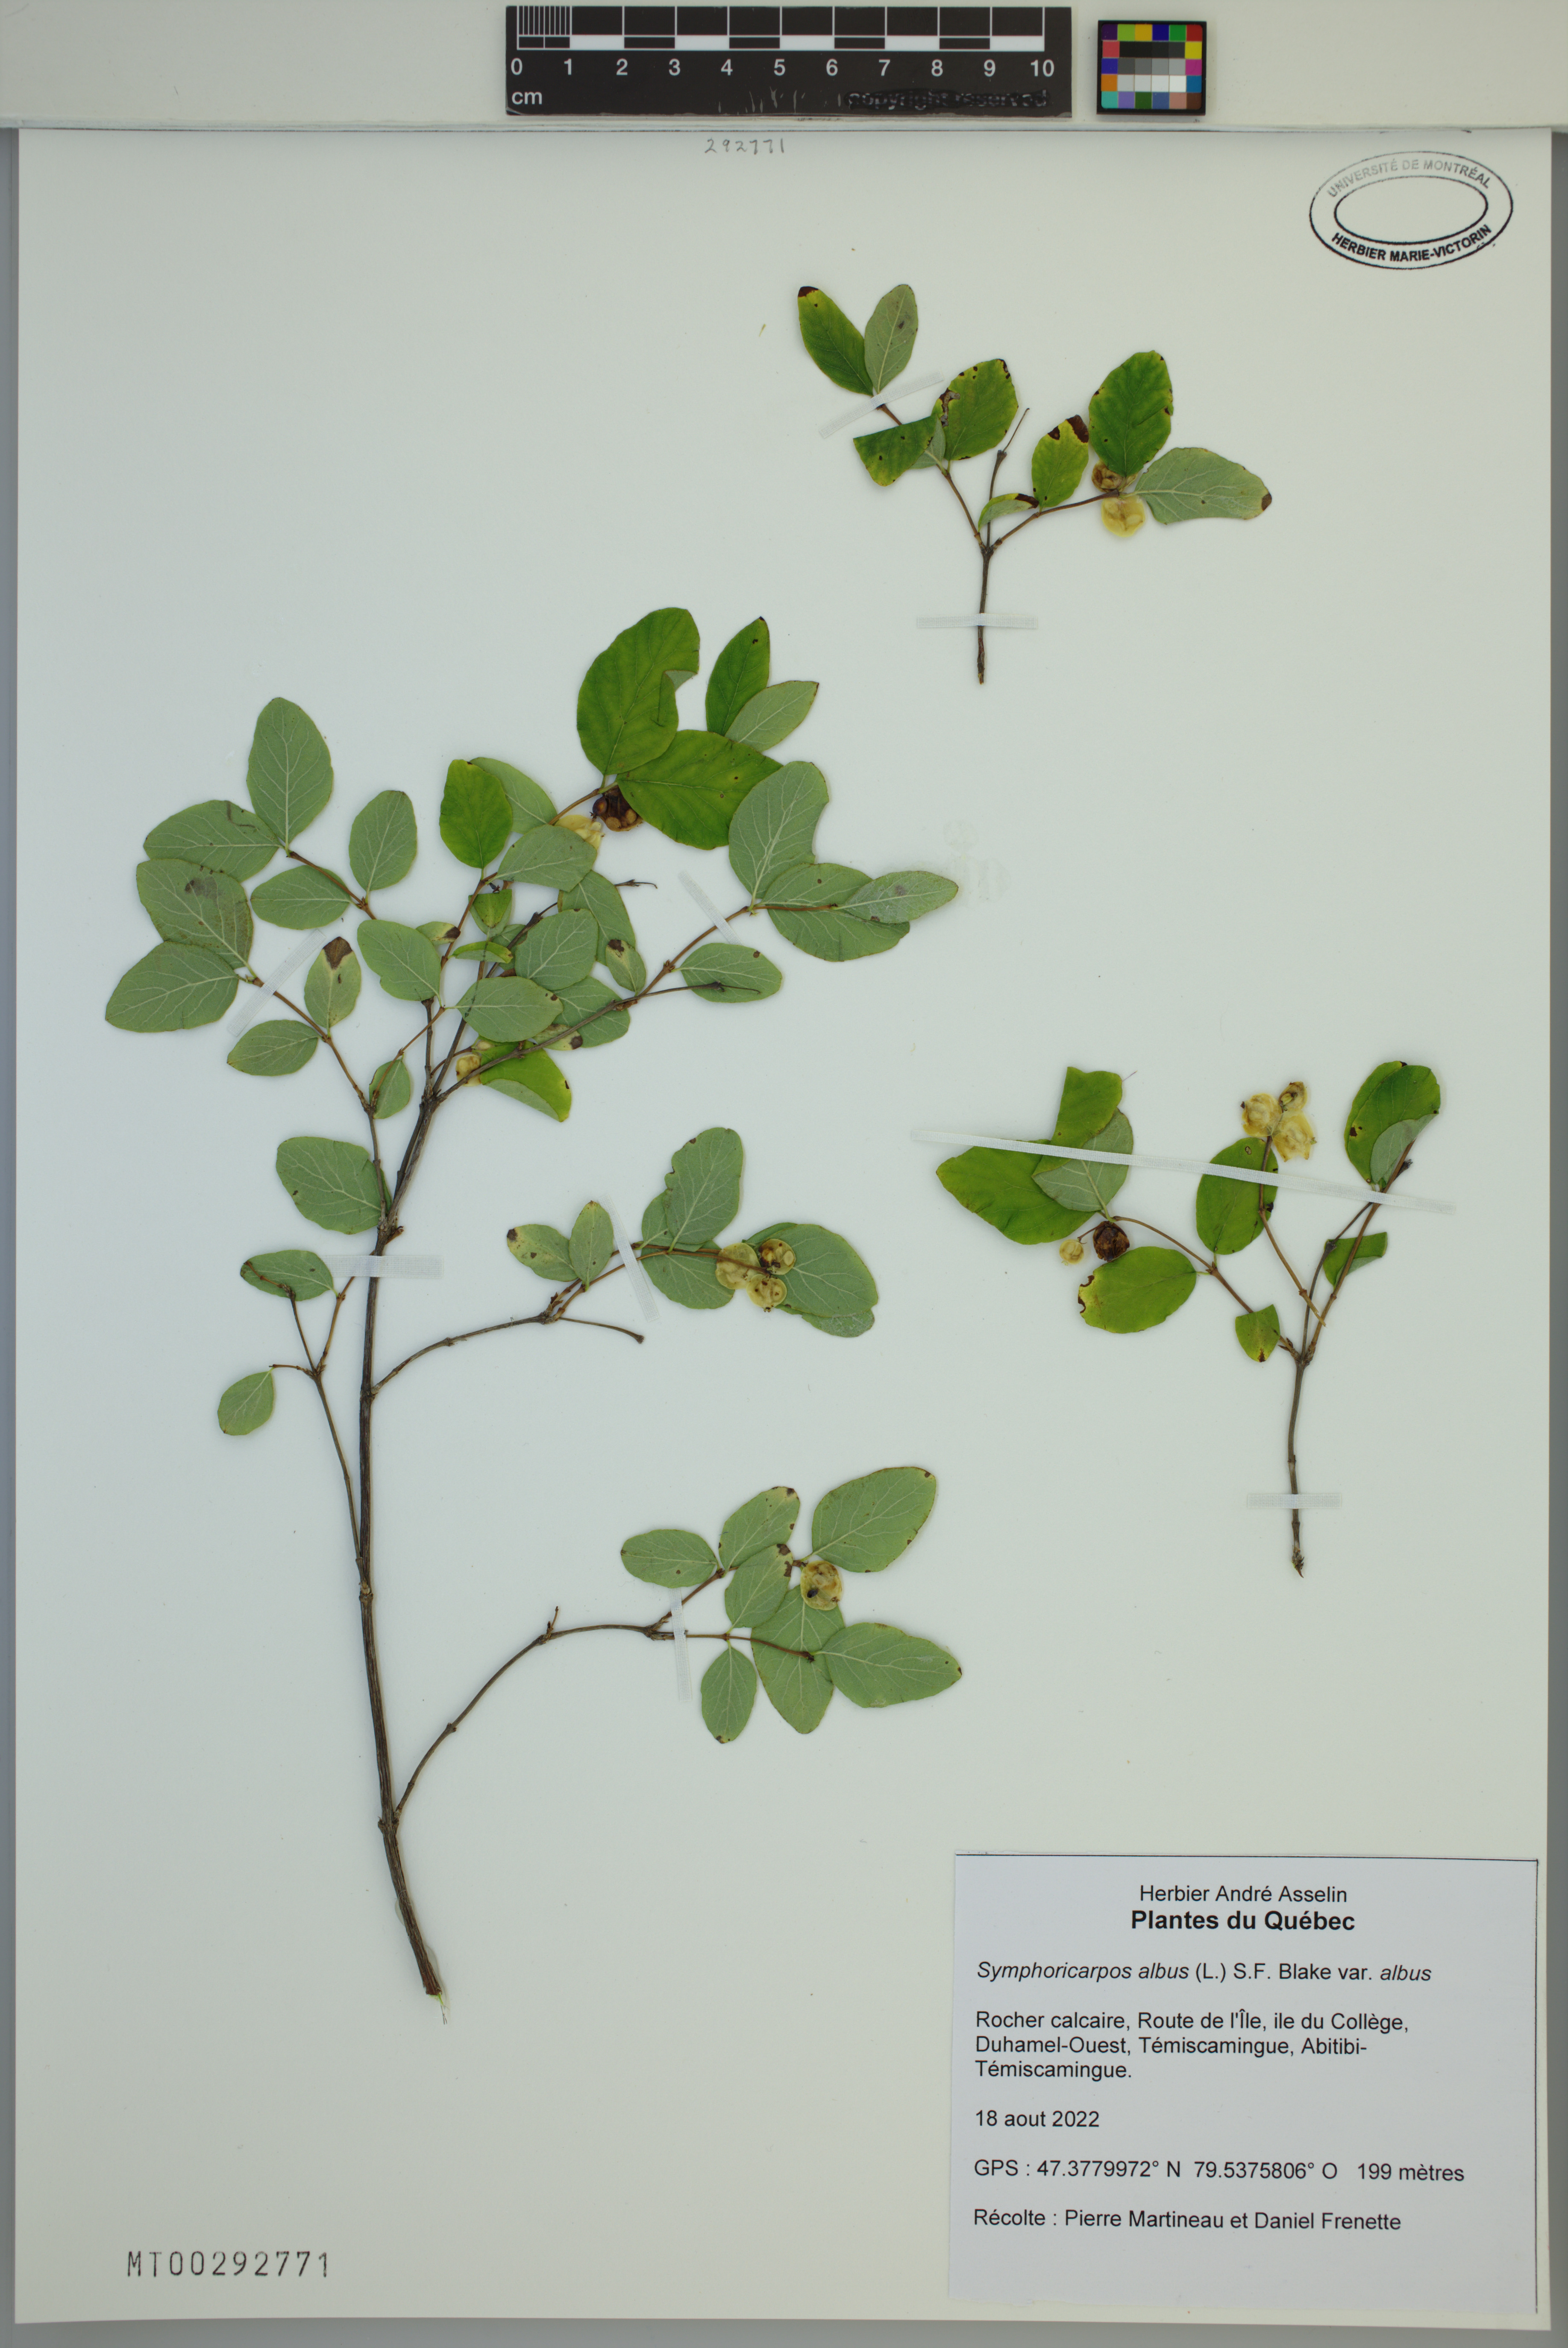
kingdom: Plantae
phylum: Tracheophyta
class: Magnoliopsida
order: Dipsacales
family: Caprifoliaceae
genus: Symphoricarpos
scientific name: Symphoricarpos albus
